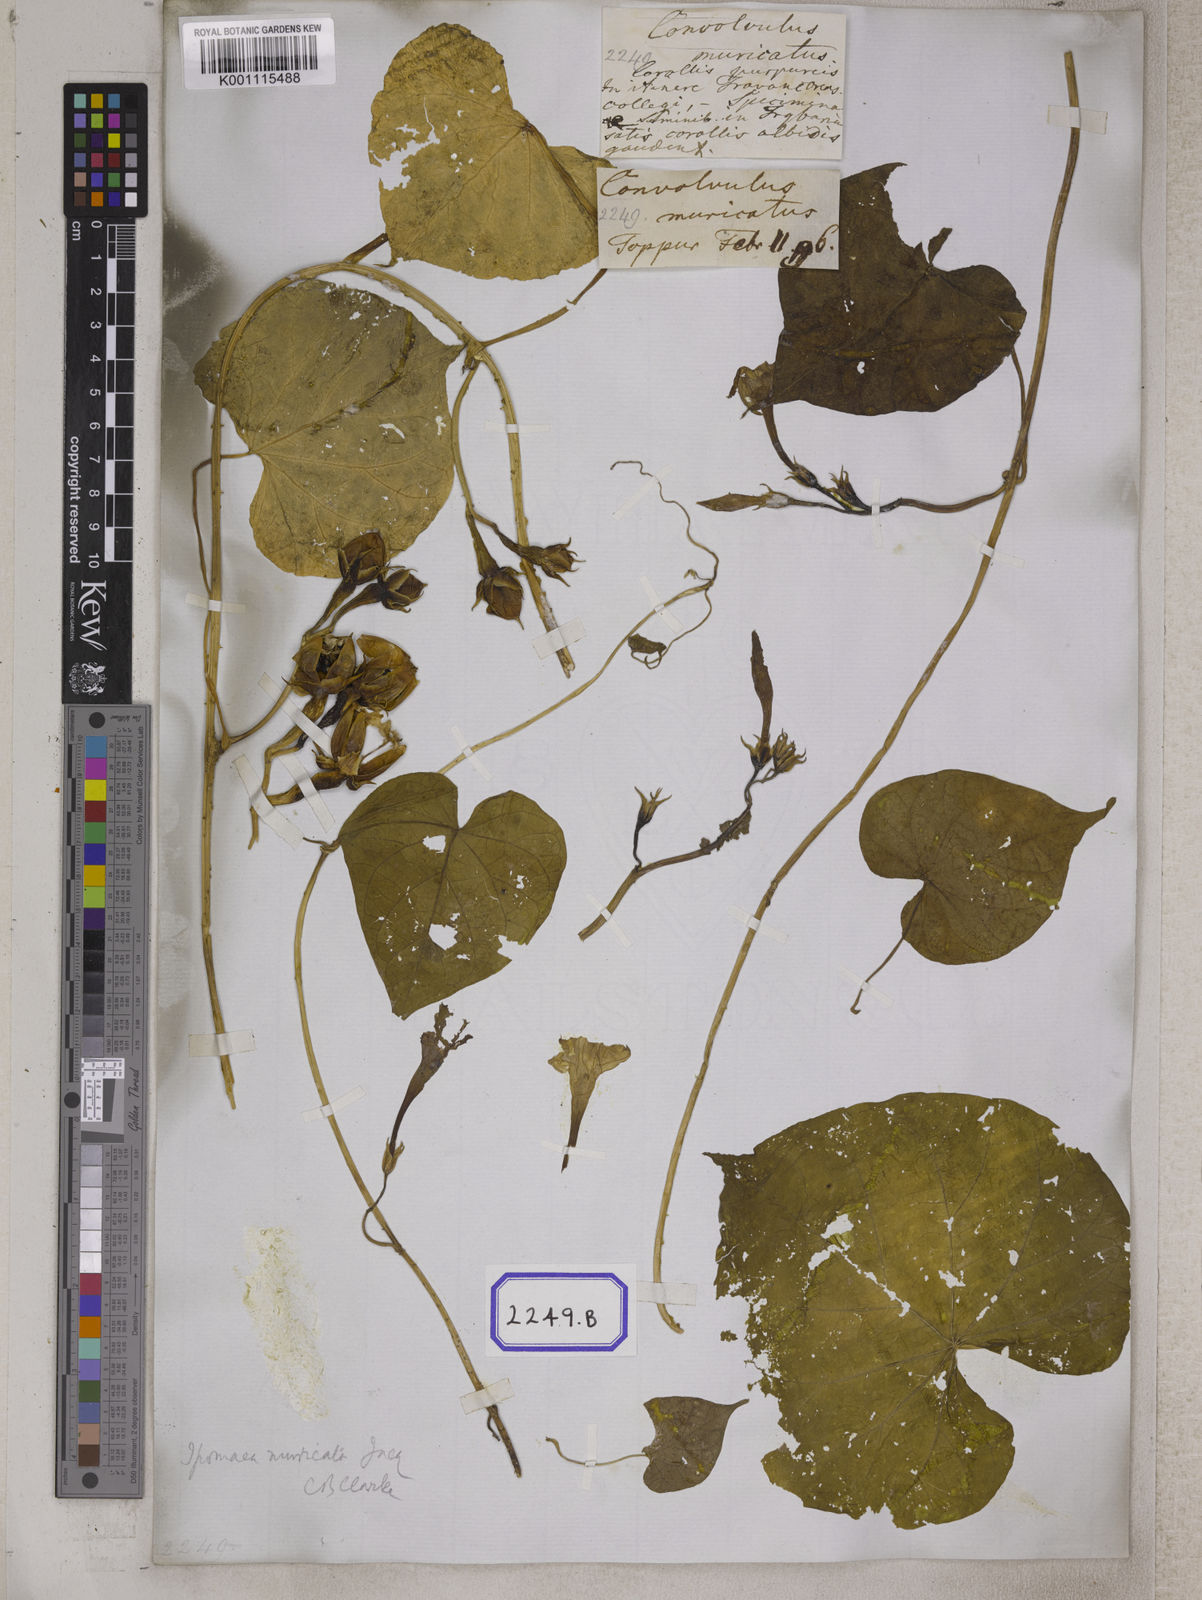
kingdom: Plantae
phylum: Tracheophyta
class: Magnoliopsida
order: Solanales
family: Convolvulaceae
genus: Ipomoea
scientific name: Ipomoea muricata
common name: Lilac-bell
